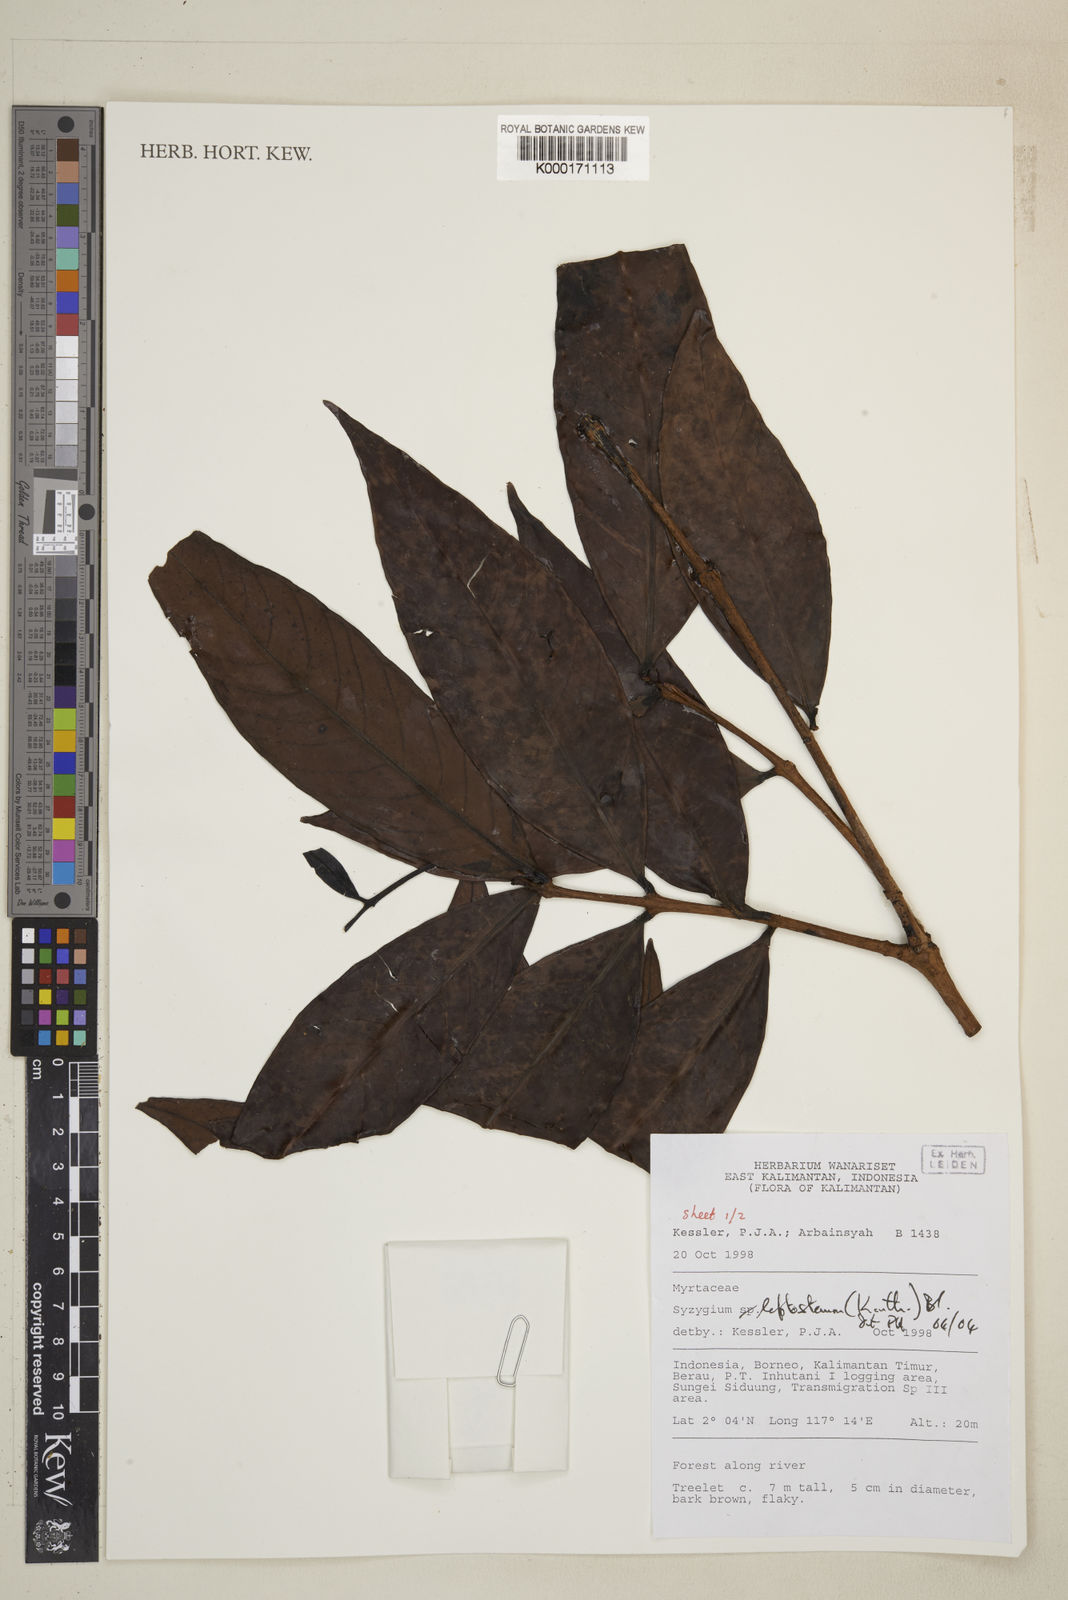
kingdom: Plantae
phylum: Tracheophyta
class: Magnoliopsida
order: Myrtales
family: Myrtaceae
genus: Syzygium
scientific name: Syzygium
